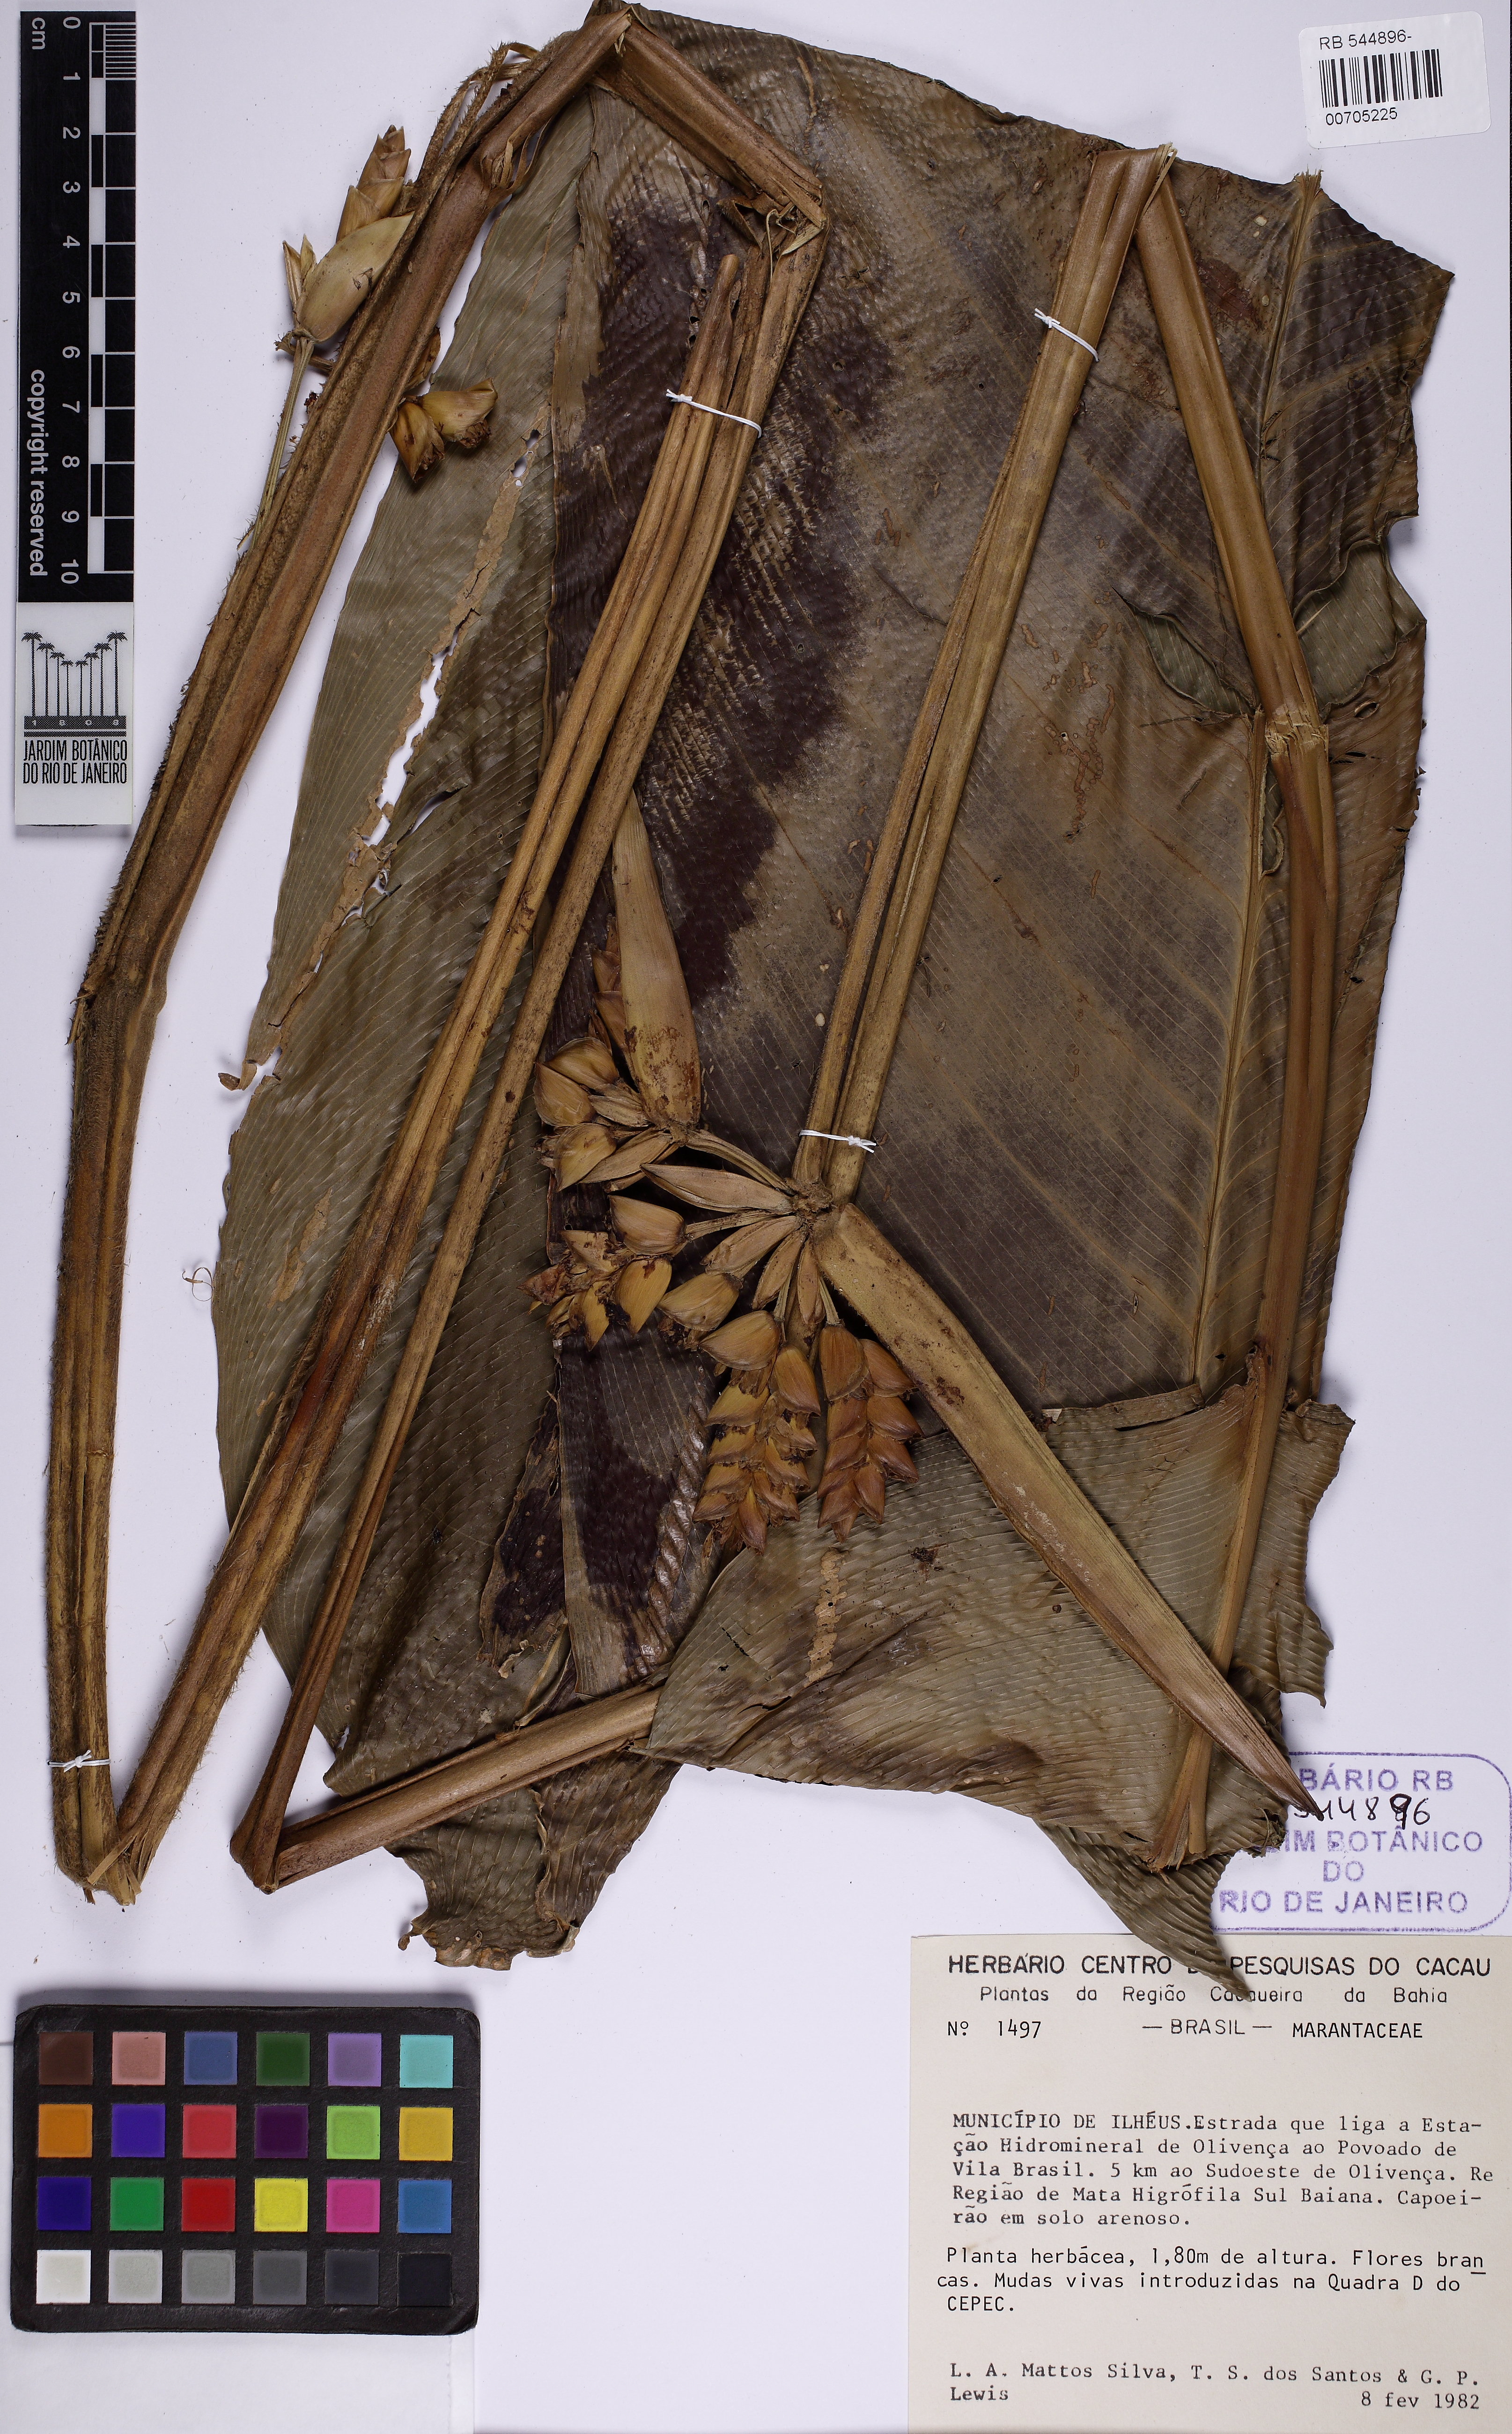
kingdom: Plantae
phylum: Tracheophyta
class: Liliopsida
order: Zingiberales
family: Marantaceae
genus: Ctenanthe
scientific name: Ctenanthe glabra
